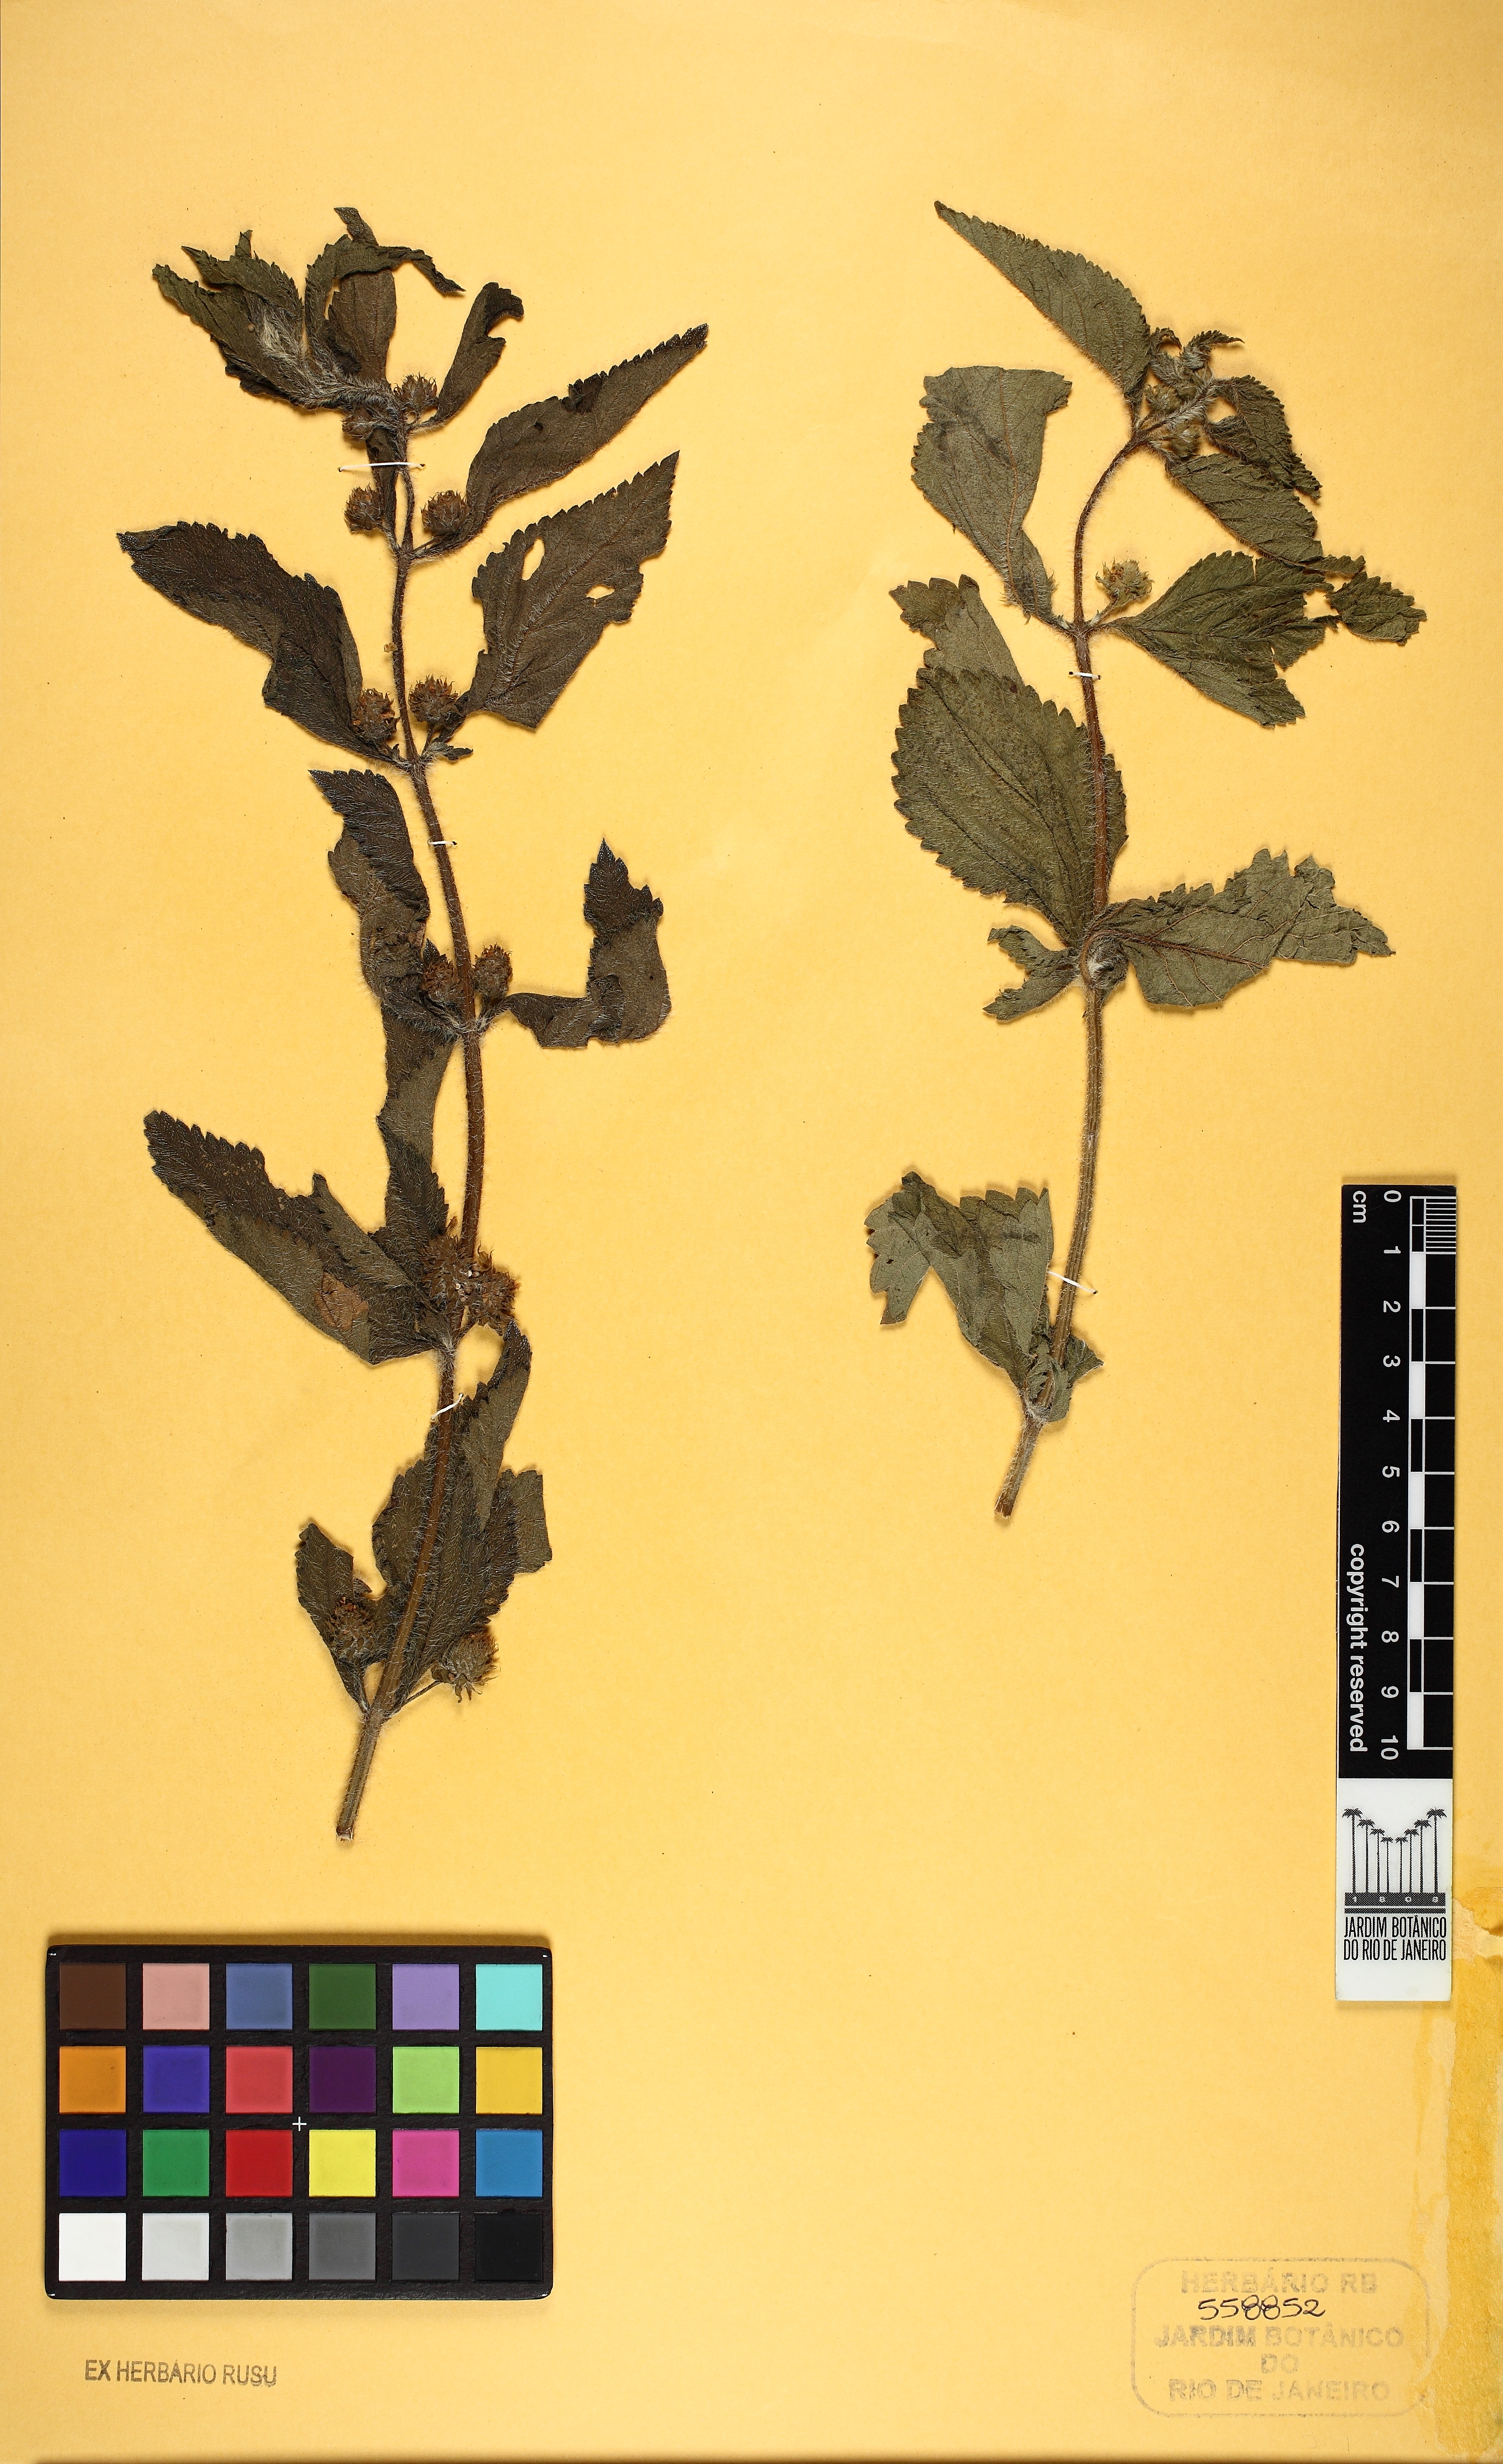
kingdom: Plantae
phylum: Tracheophyta
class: Magnoliopsida
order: Lamiales
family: Verbenaceae
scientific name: Verbenaceae
